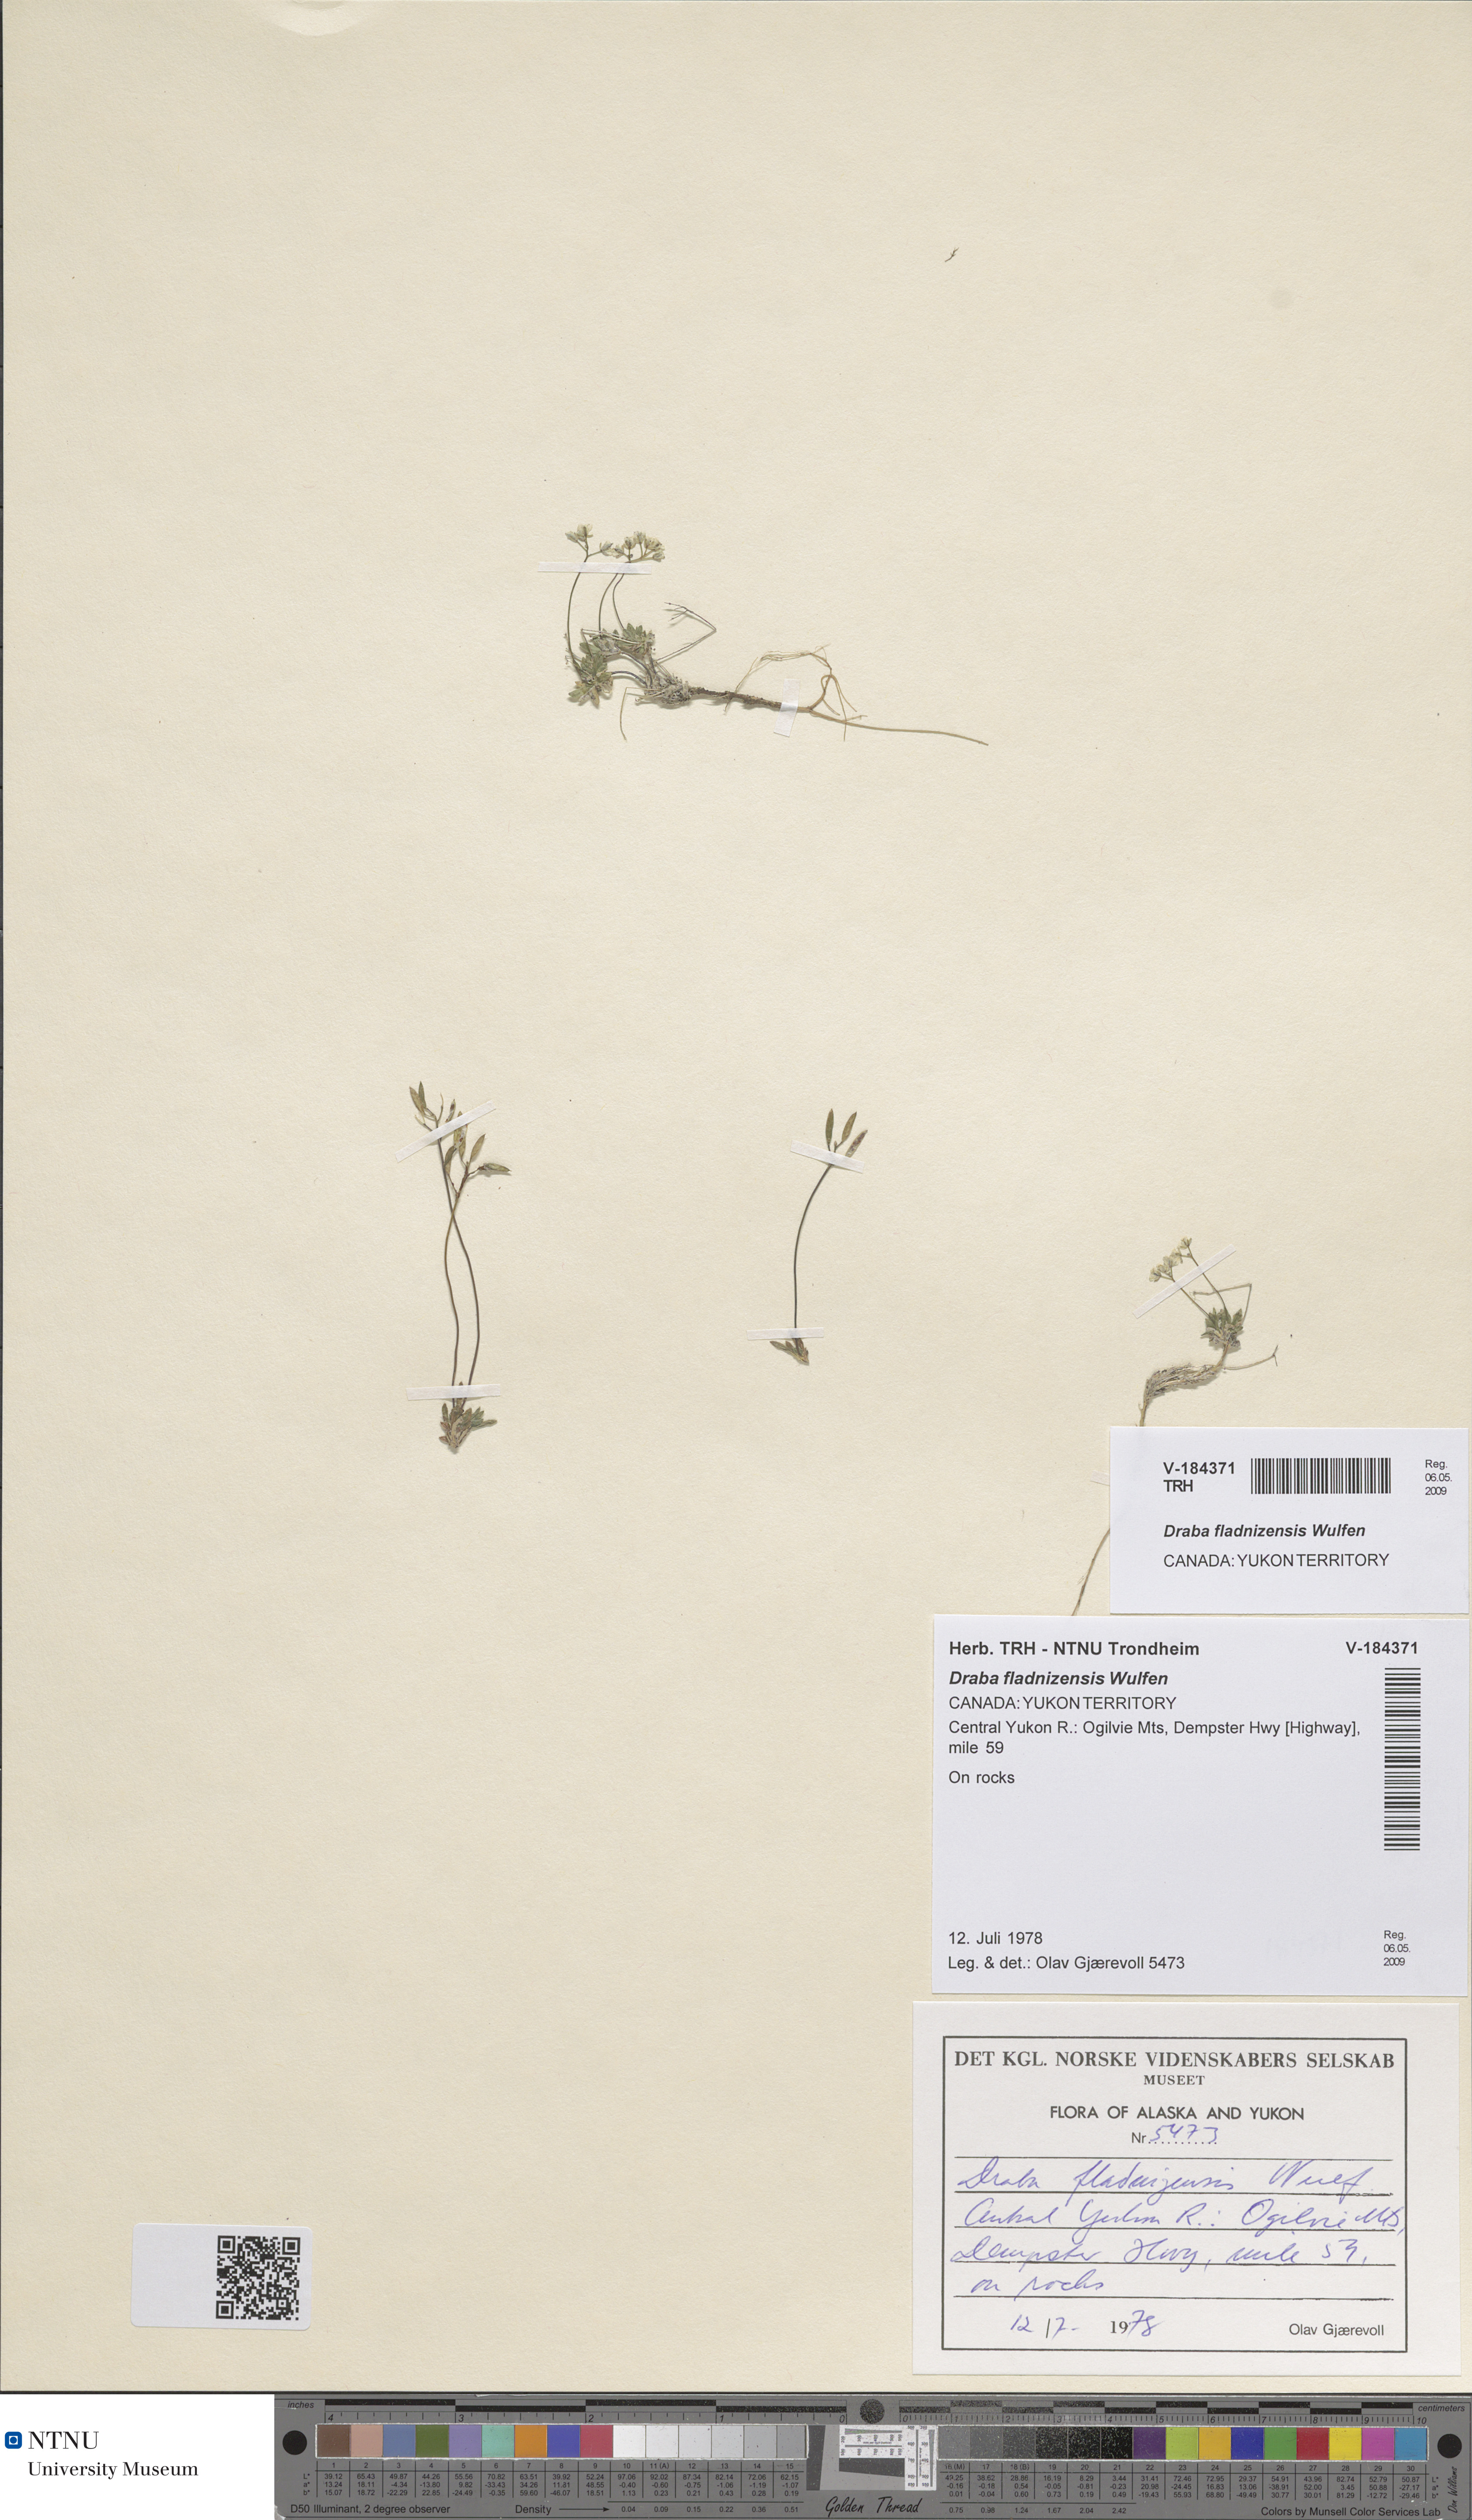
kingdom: Plantae
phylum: Tracheophyta
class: Magnoliopsida
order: Brassicales
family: Brassicaceae
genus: Draba
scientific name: Draba fladnizensis
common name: Austrian draba
